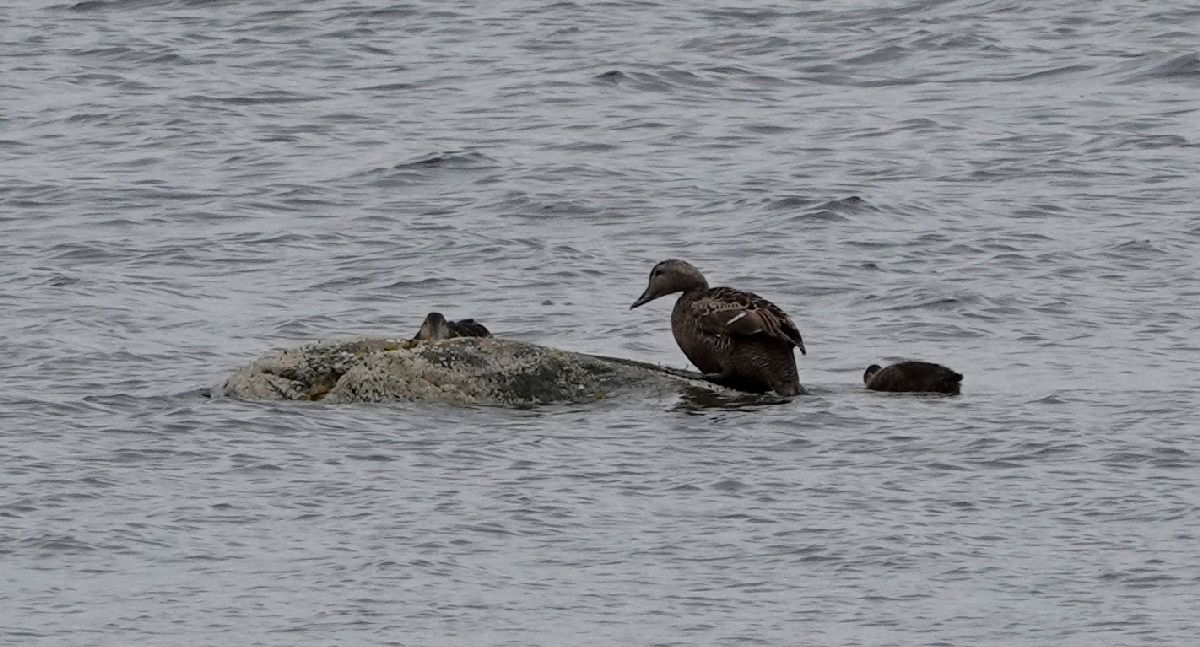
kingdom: Animalia
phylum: Chordata
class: Aves
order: Anseriformes
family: Anatidae
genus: Somateria
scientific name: Somateria mollissima
